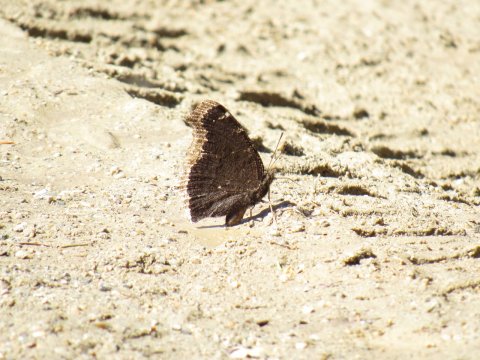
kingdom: Animalia
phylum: Arthropoda
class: Insecta
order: Lepidoptera
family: Nymphalidae
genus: Nymphalis
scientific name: Nymphalis antiopa
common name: Mourning Cloak
